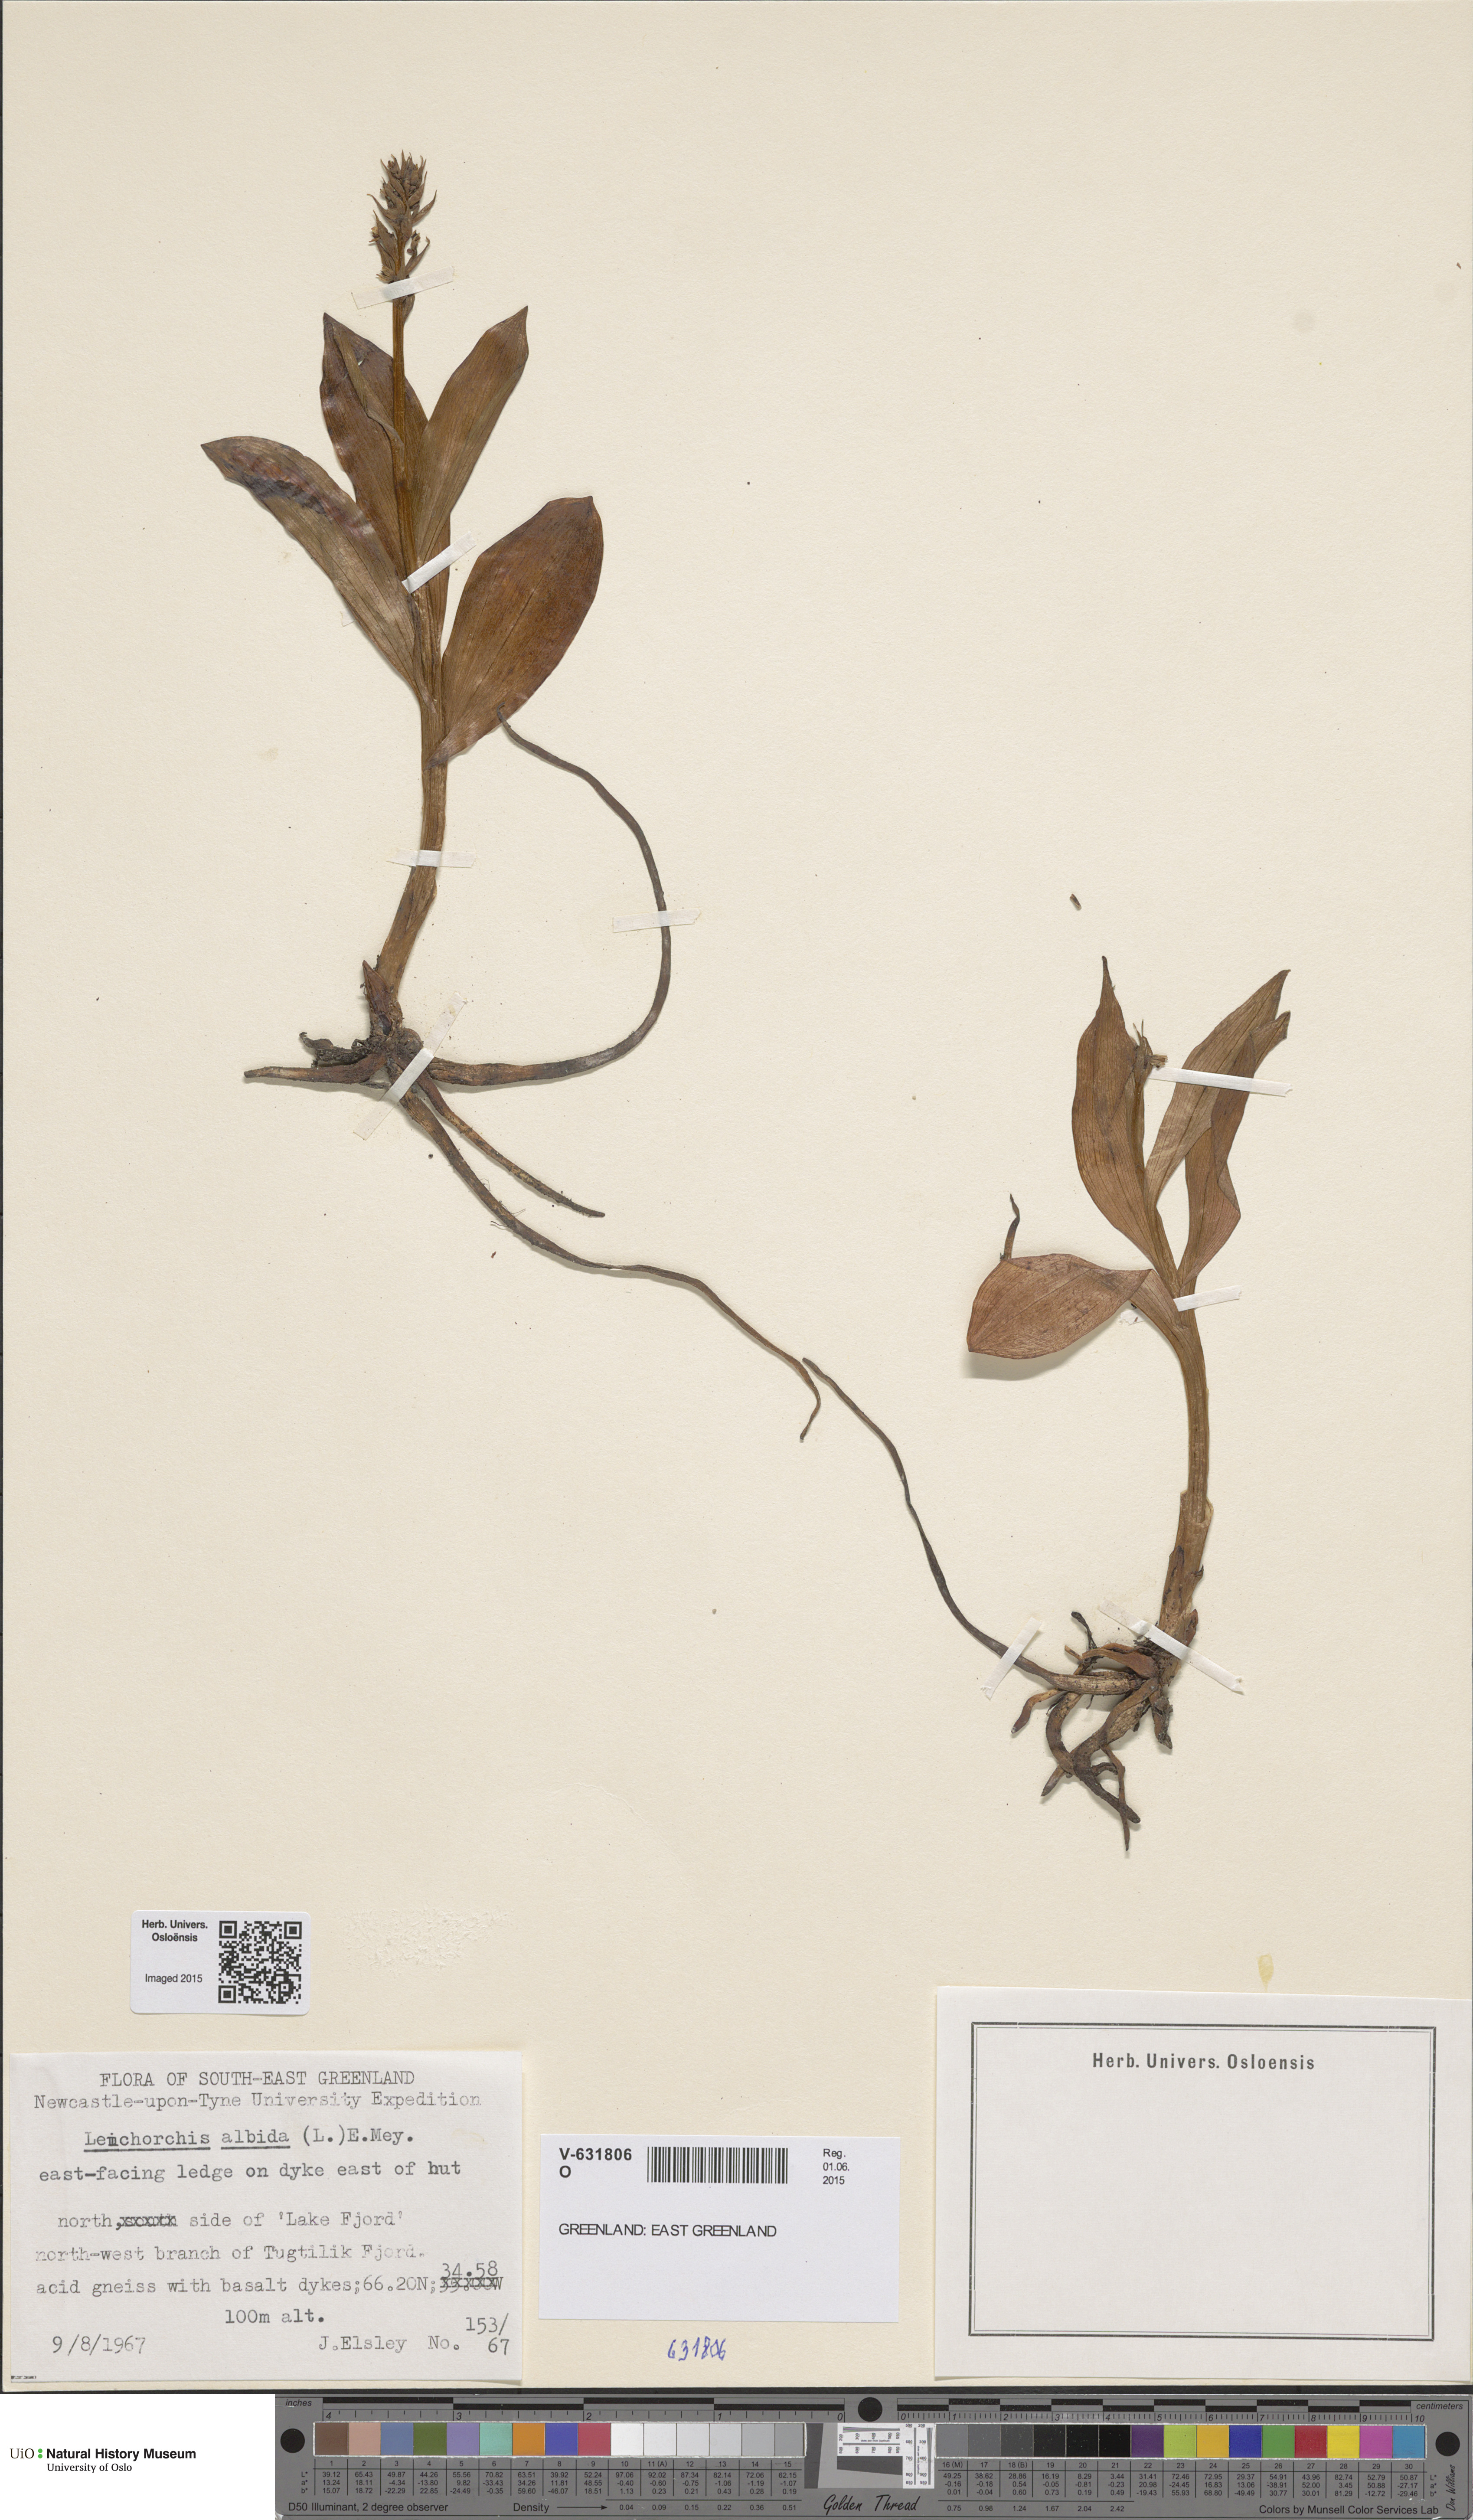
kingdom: Plantae
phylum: Tracheophyta
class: Liliopsida
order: Asparagales
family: Orchidaceae
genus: Pseudorchis
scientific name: Pseudorchis straminea
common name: Vanilla-scented bog orchid
